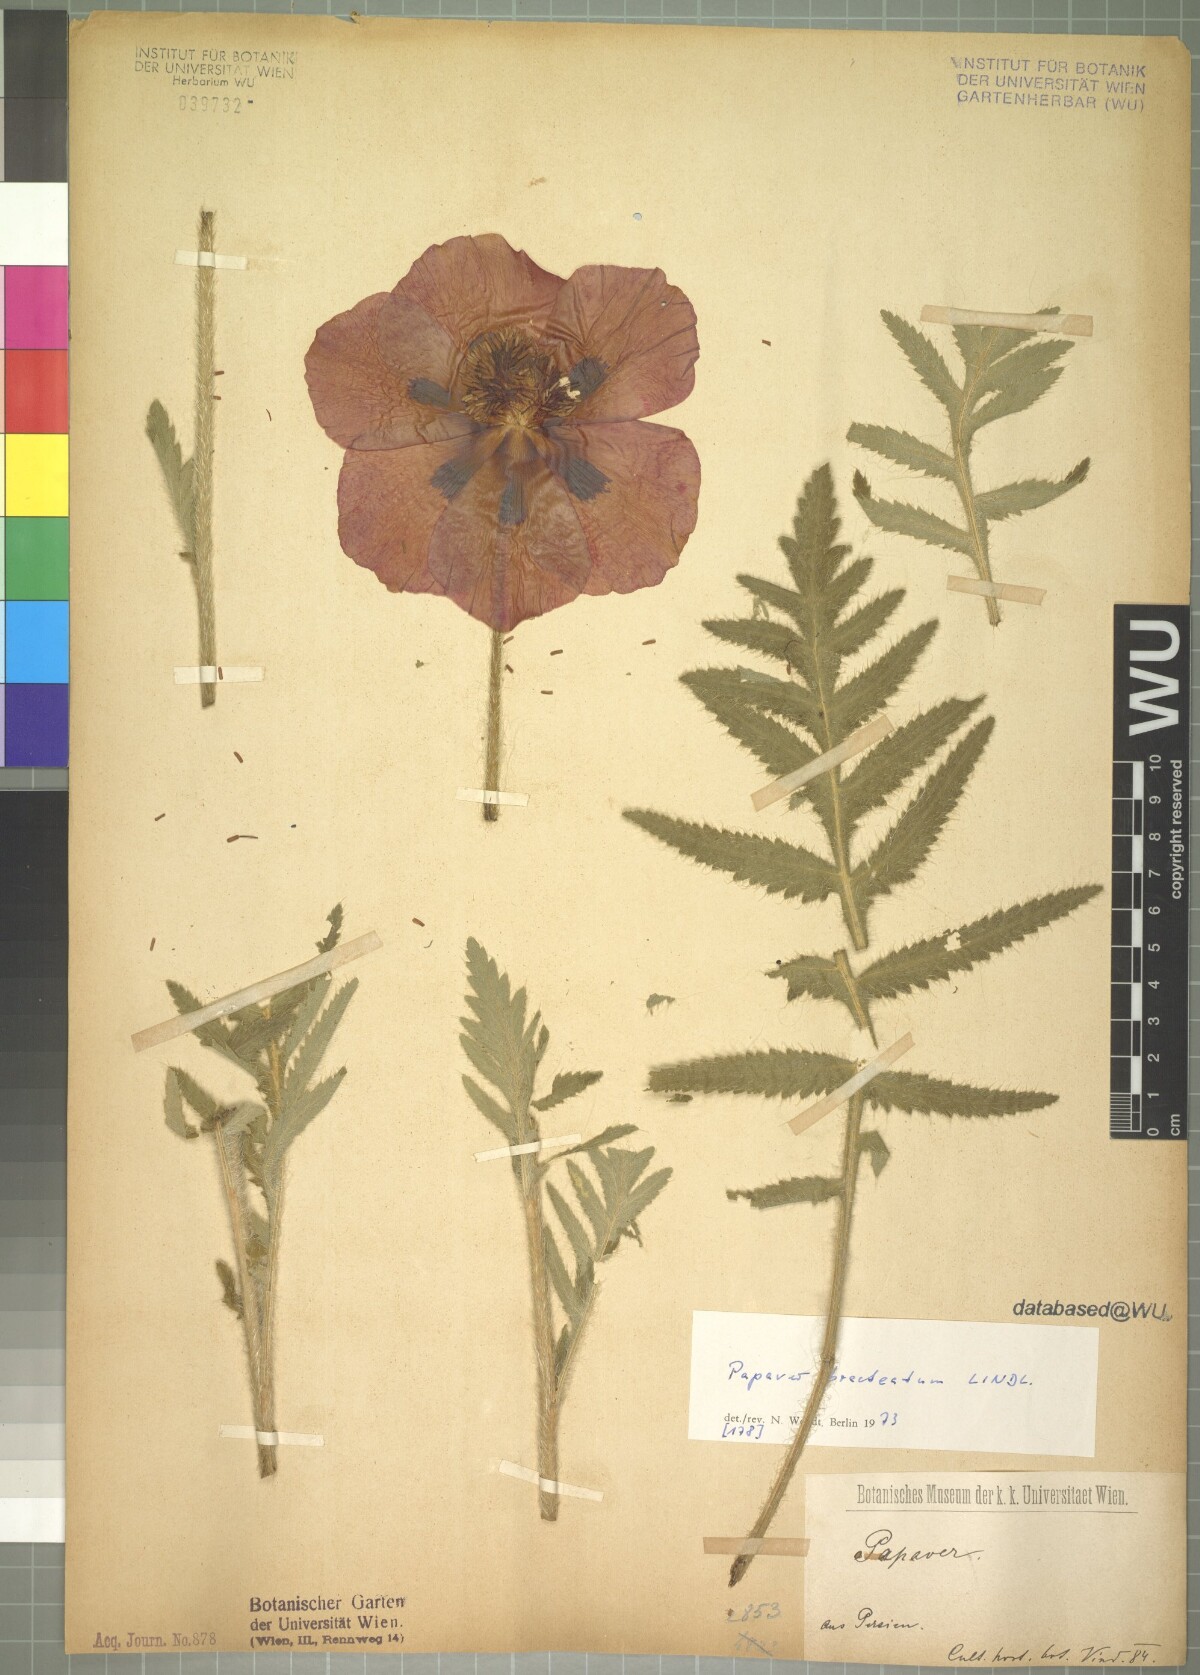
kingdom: Plantae
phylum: Tracheophyta
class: Magnoliopsida
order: Ranunculales
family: Papaveraceae
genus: Papaver
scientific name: Papaver bracteatum
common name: Great scarlet poppy
